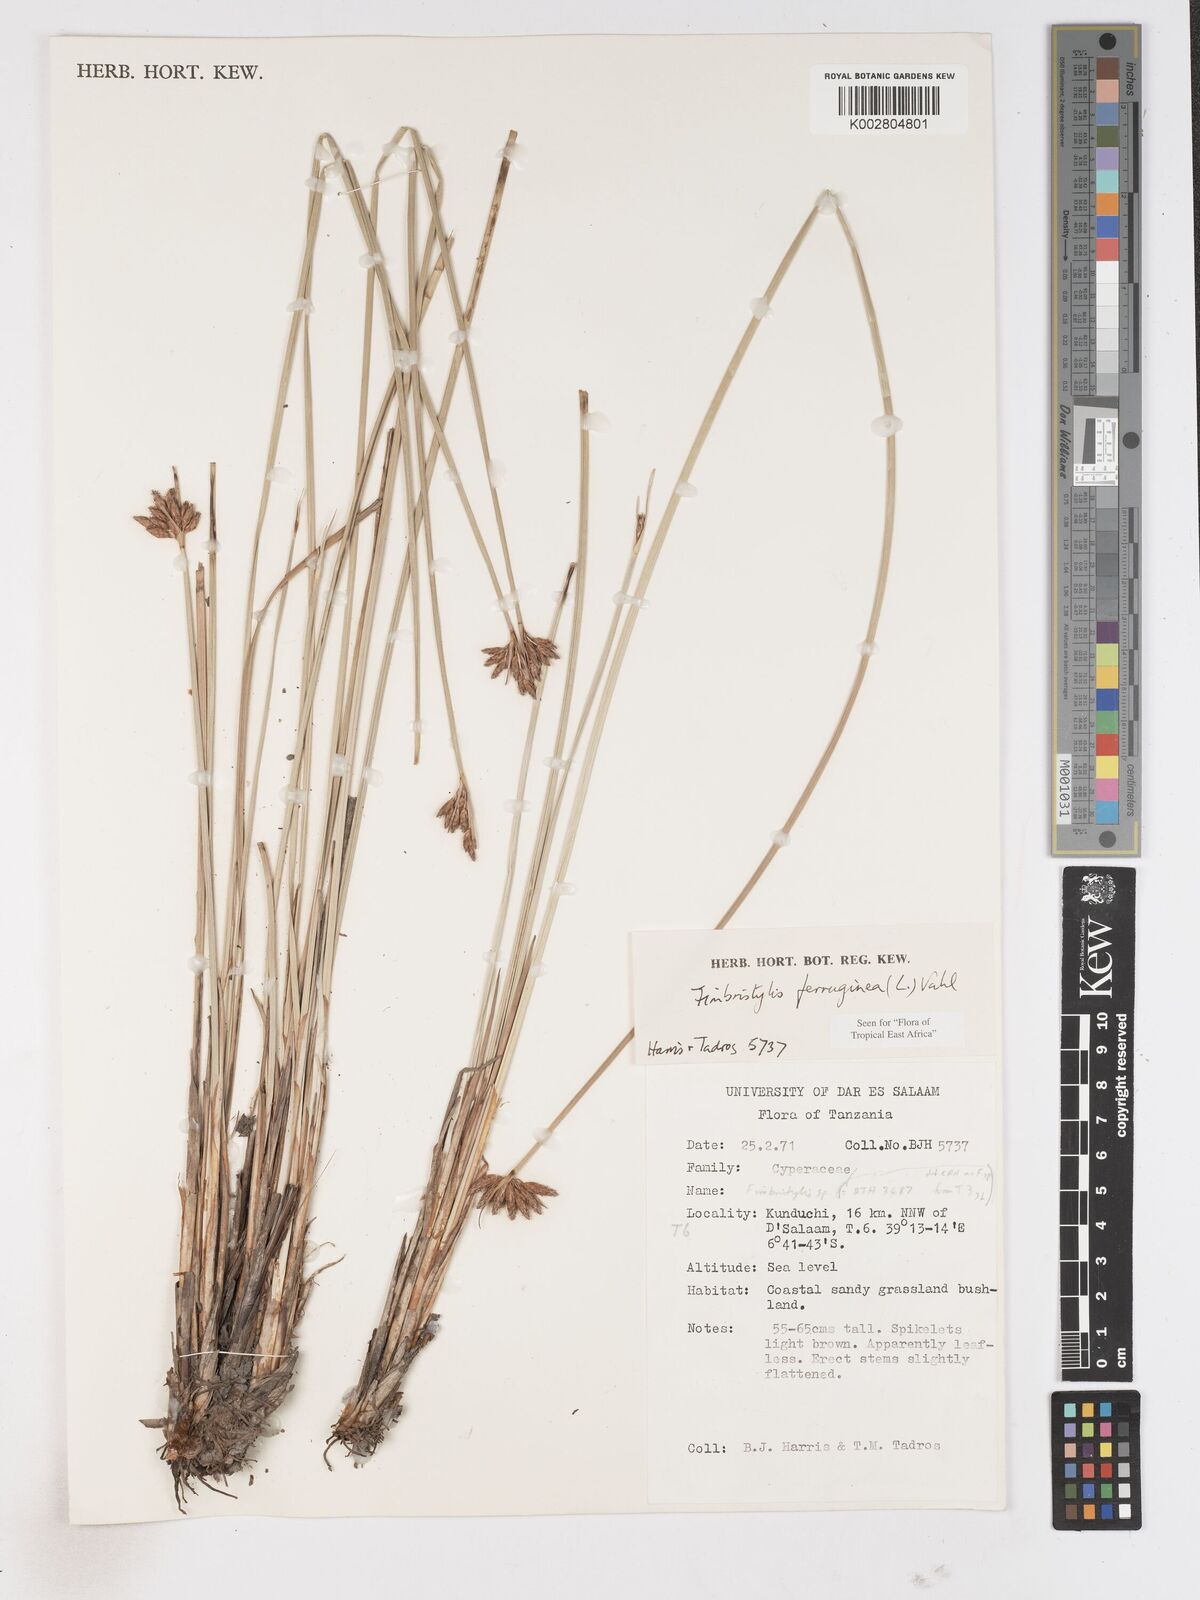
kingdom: Plantae
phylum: Tracheophyta
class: Liliopsida
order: Poales
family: Cyperaceae
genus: Fimbristylis
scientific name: Fimbristylis ferruginea
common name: West indian fimbry
